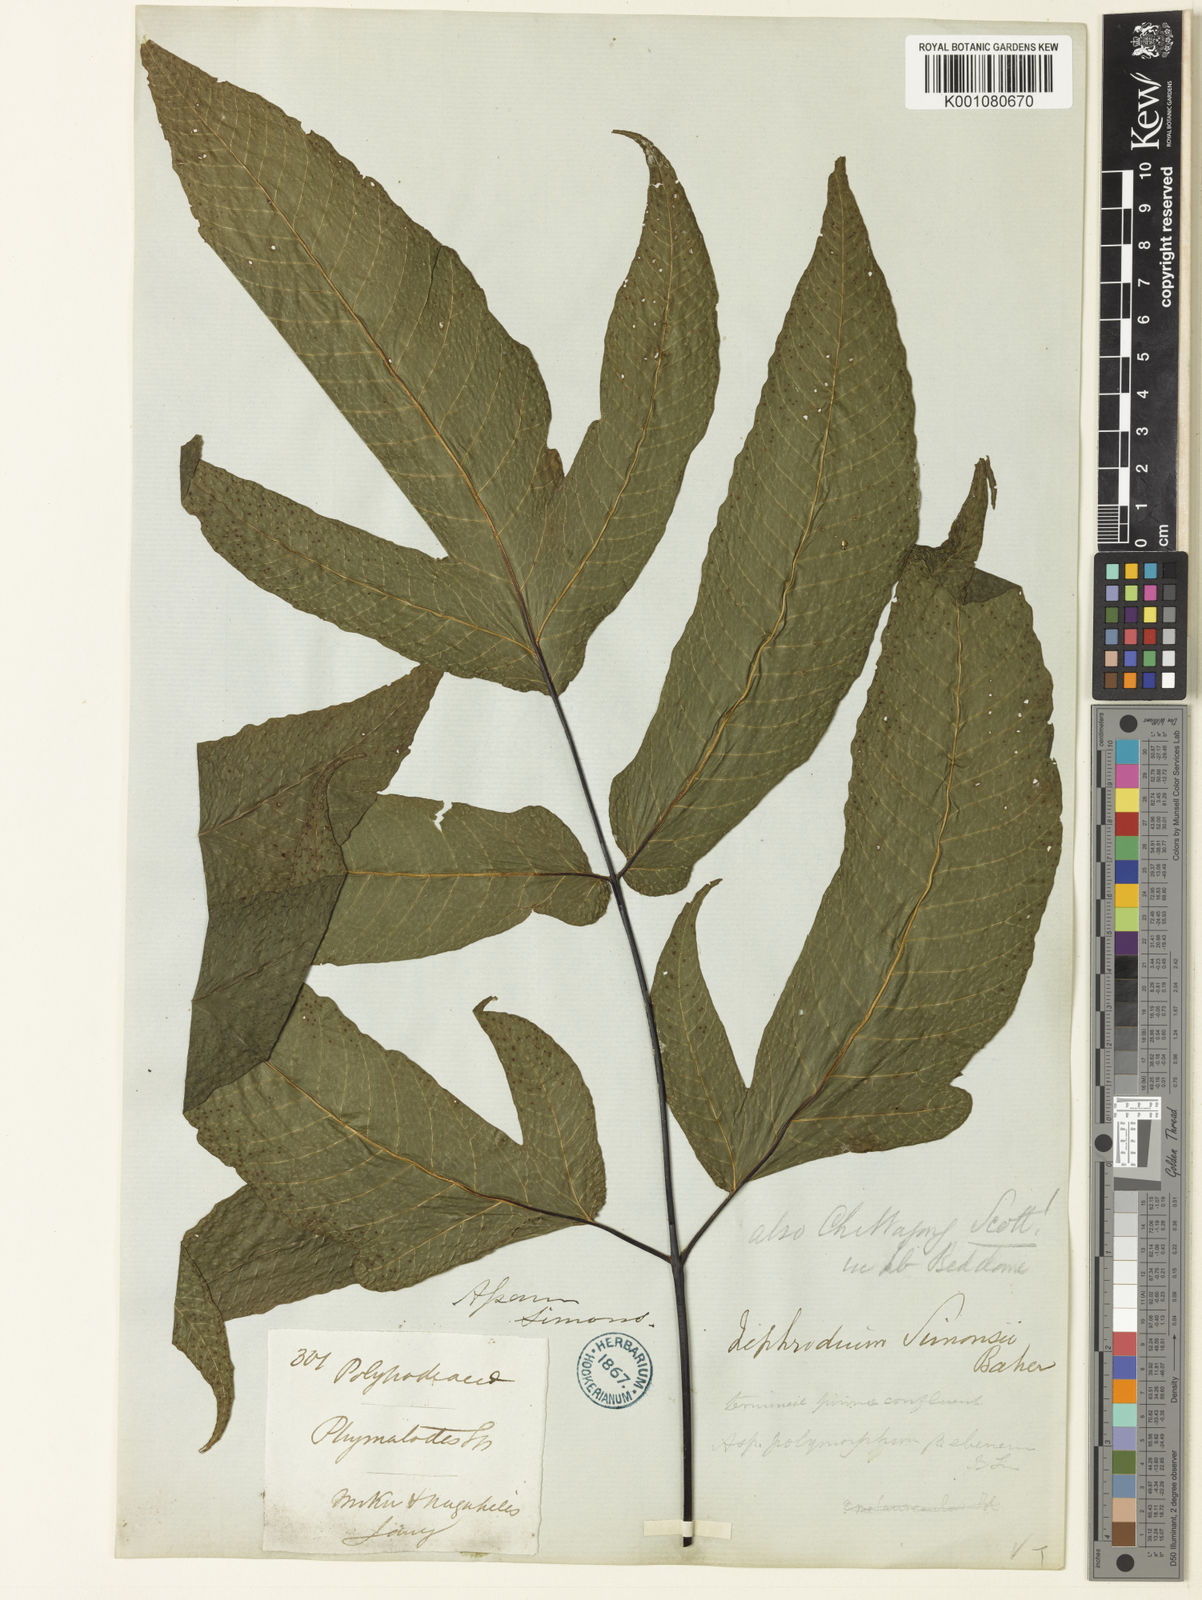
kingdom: Plantae
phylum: Tracheophyta
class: Polypodiopsida
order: Polypodiales
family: Tectariaceae
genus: Tectaria
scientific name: Tectaria simonsii
